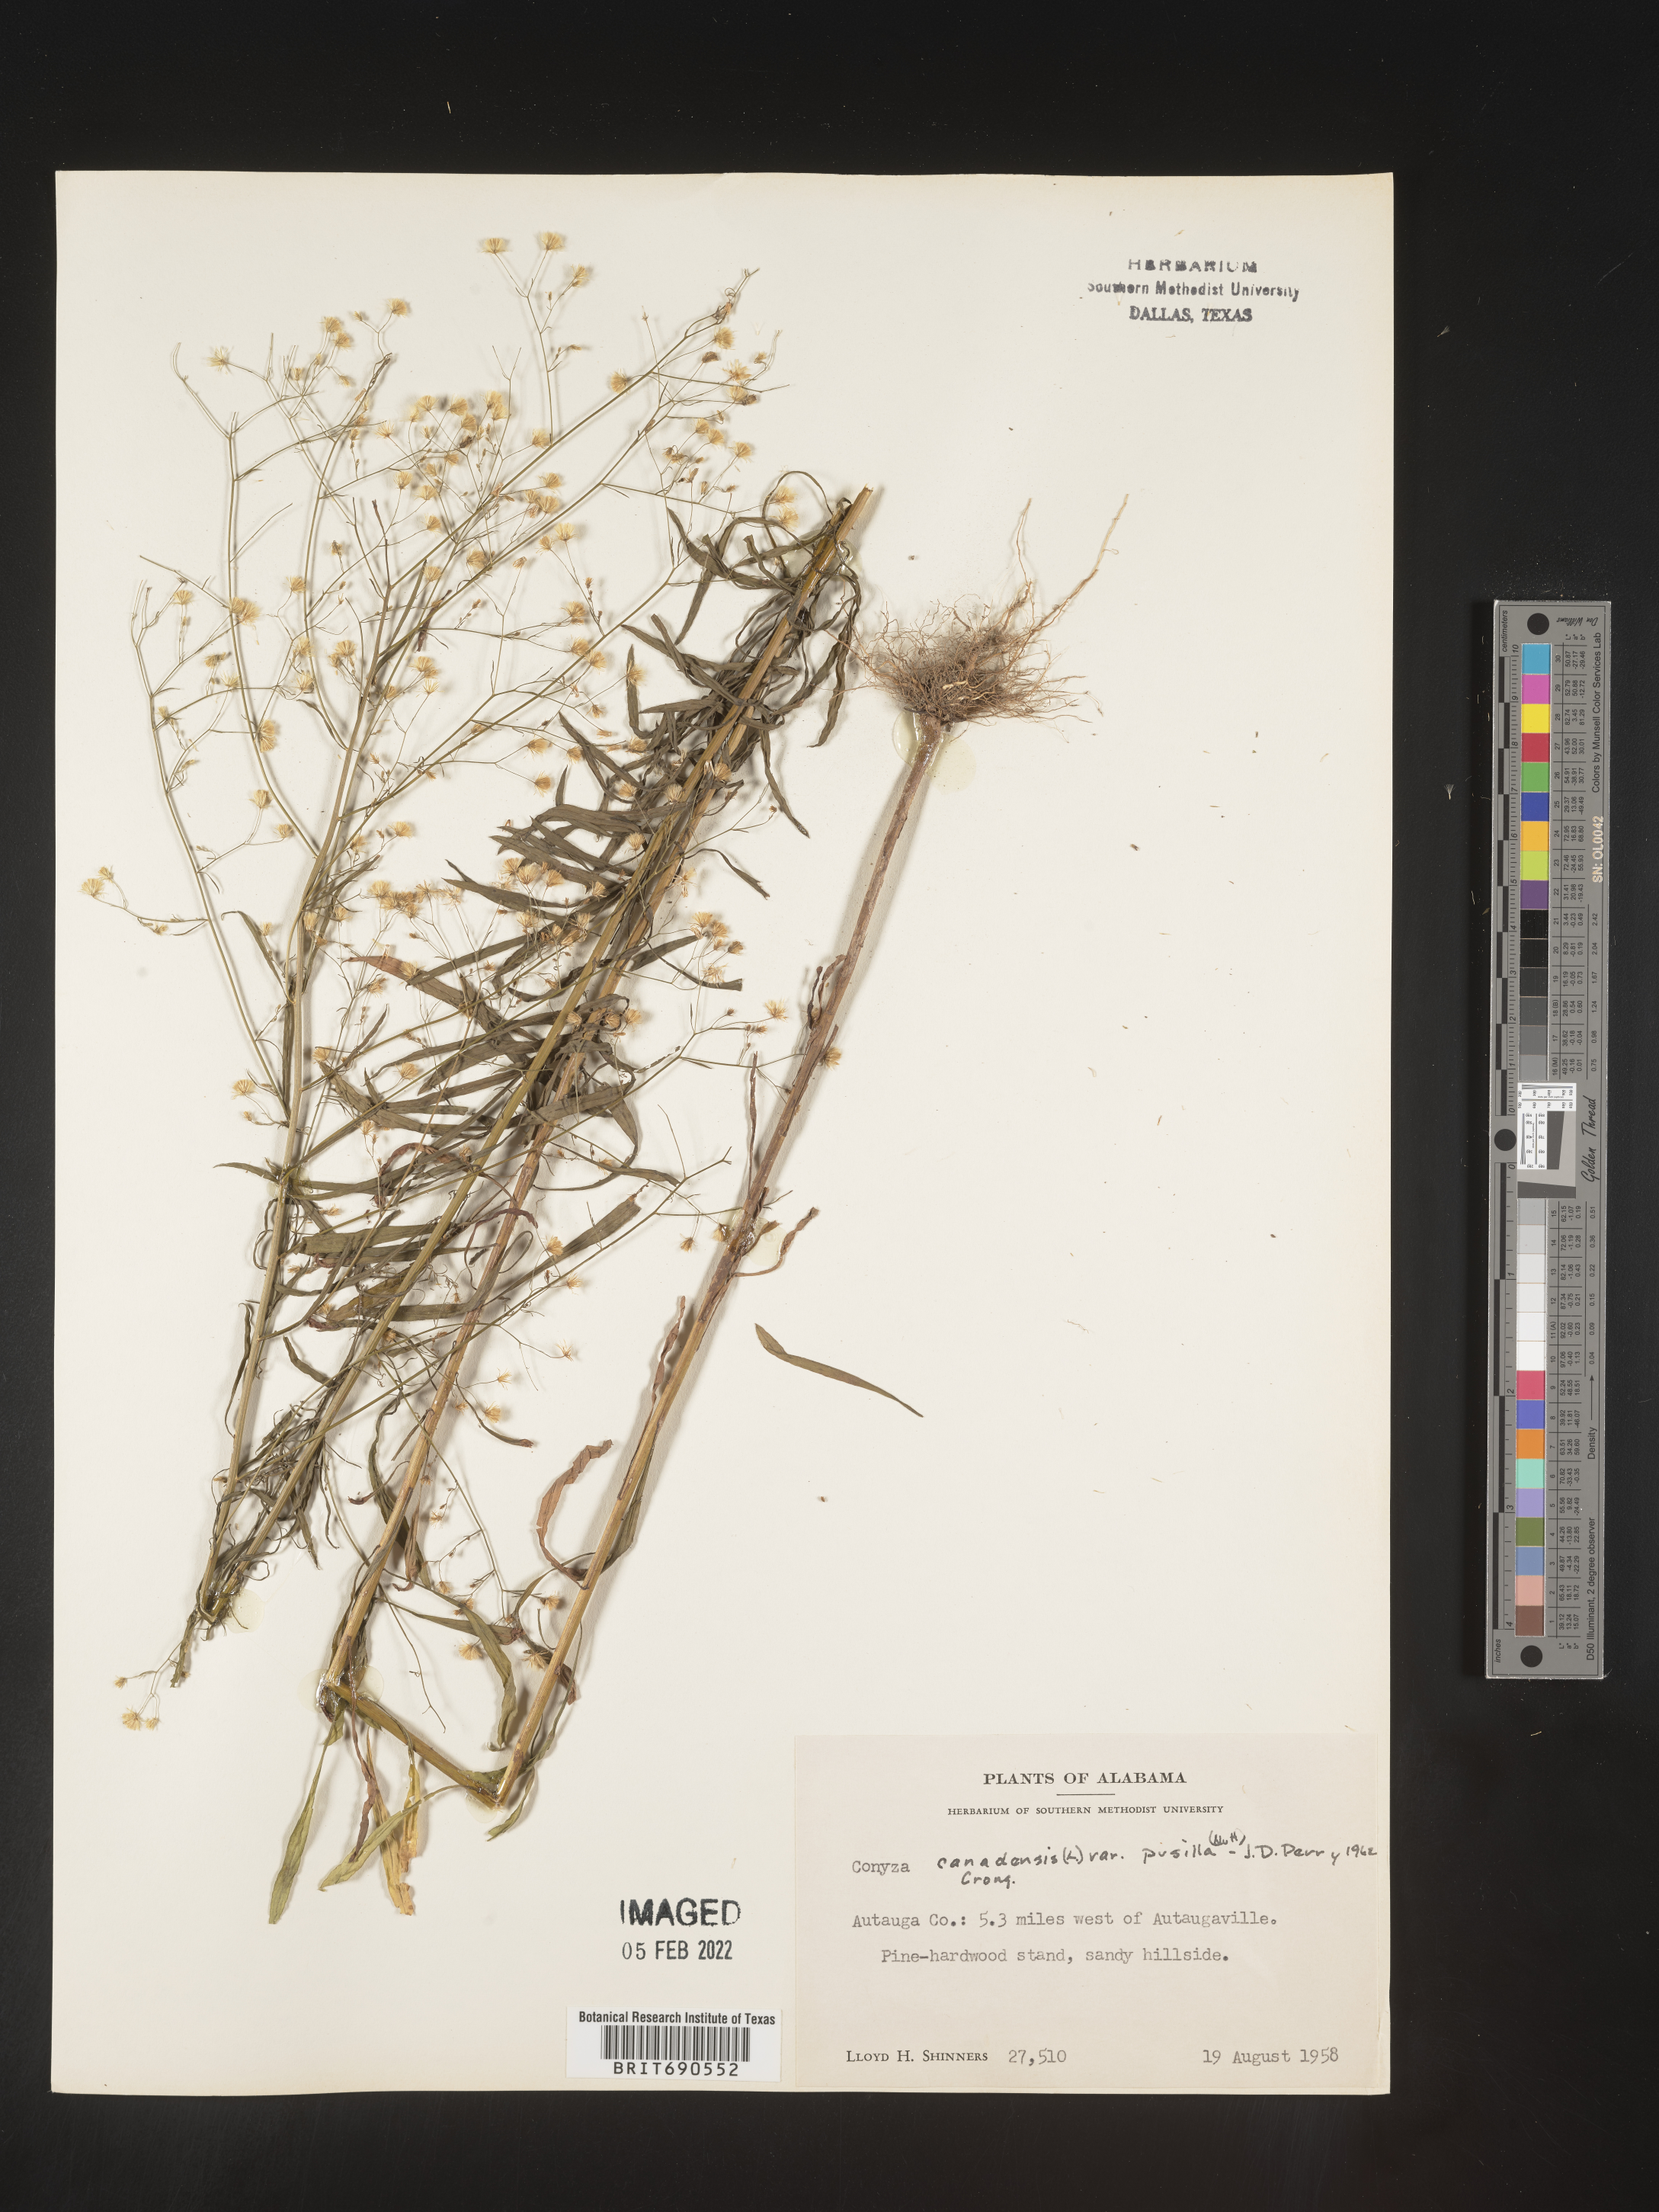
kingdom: Plantae
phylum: Tracheophyta
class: Magnoliopsida
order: Asterales
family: Asteraceae
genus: Erigeron
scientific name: Erigeron canadensis
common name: Canadian fleabane
